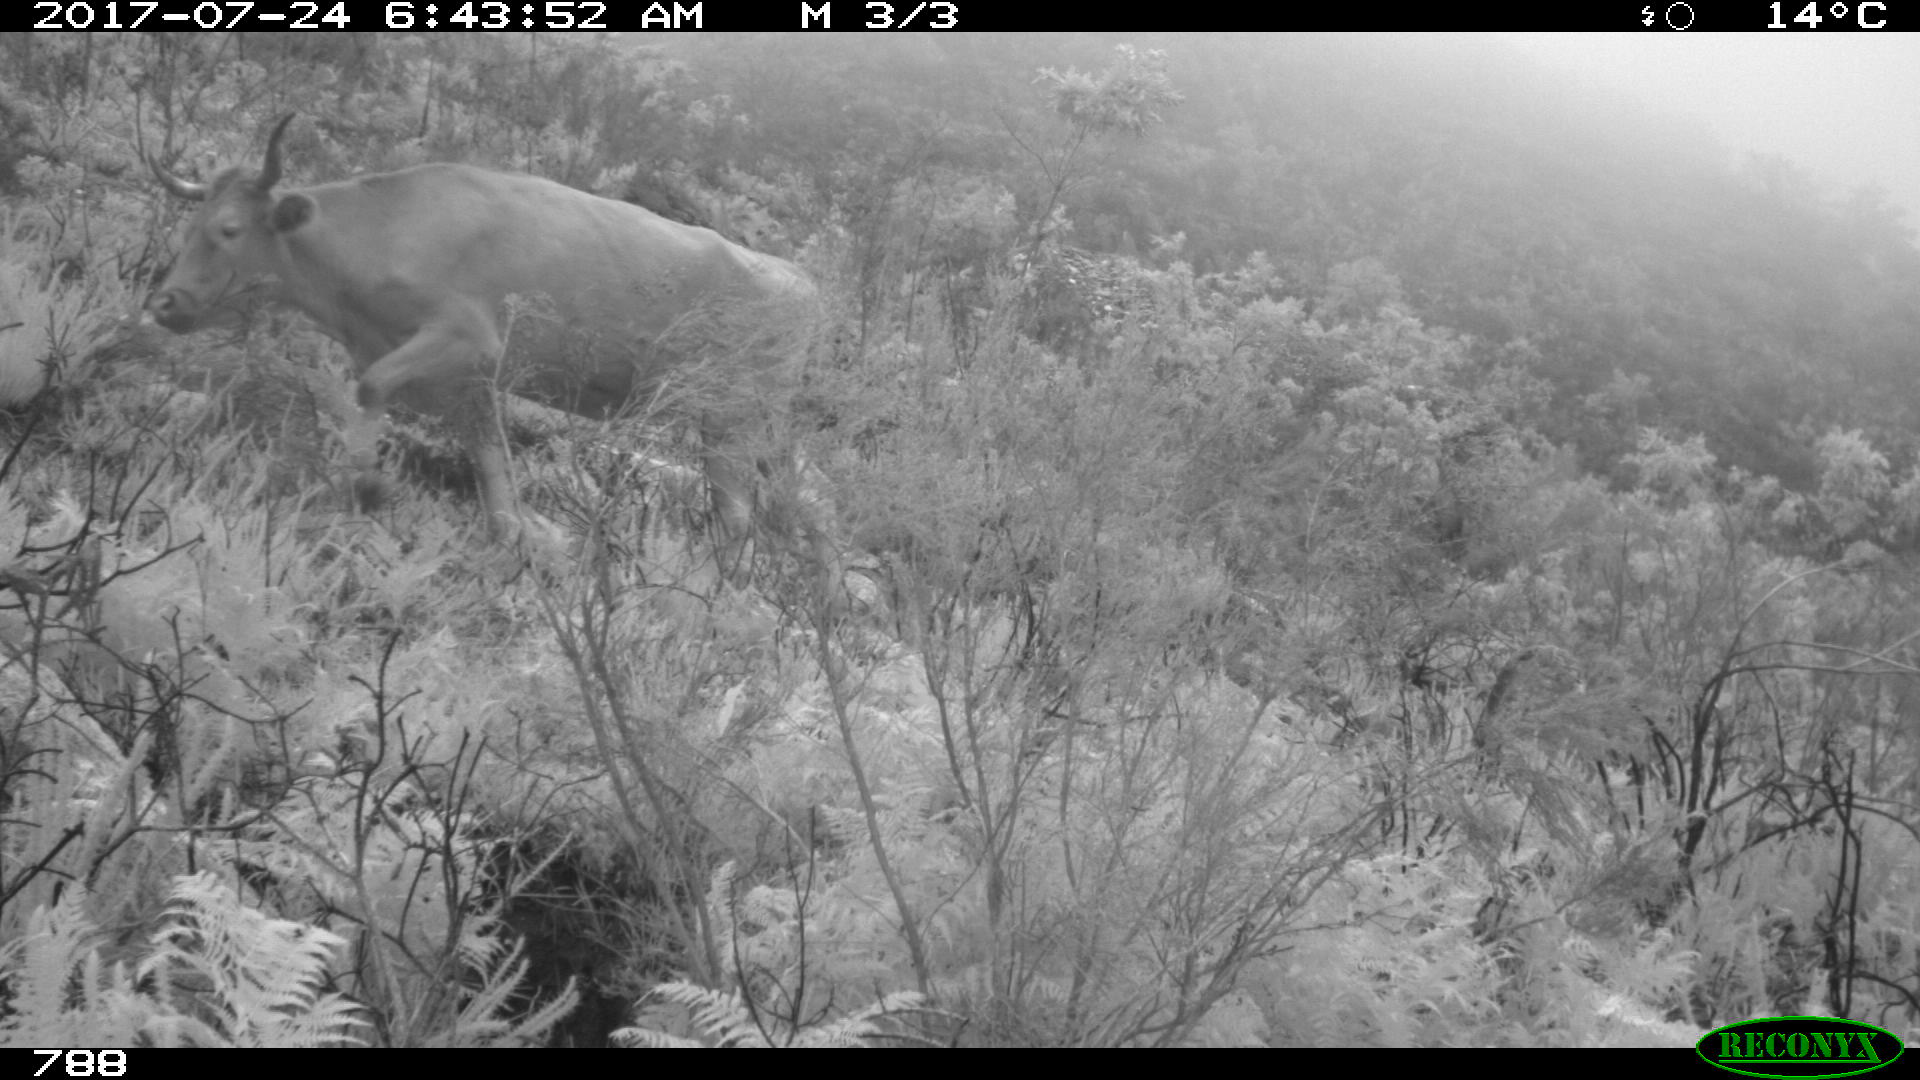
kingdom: Animalia
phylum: Chordata
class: Mammalia
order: Artiodactyla
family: Bovidae
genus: Bos
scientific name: Bos taurus
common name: Domesticated cattle
